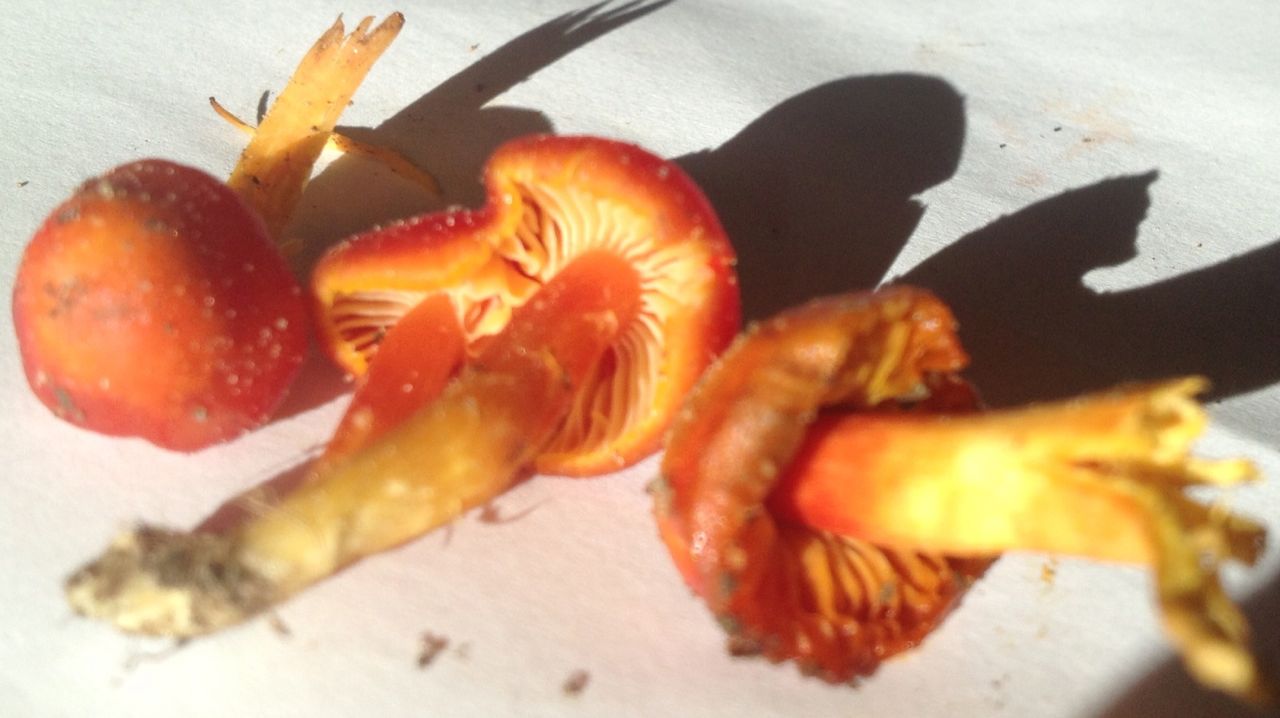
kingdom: Fungi
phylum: Basidiomycota
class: Agaricomycetes
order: Agaricales
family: Hygrophoraceae
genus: Hygrocybe
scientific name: Hygrocybe coccinea
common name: cinnober-vokshat
